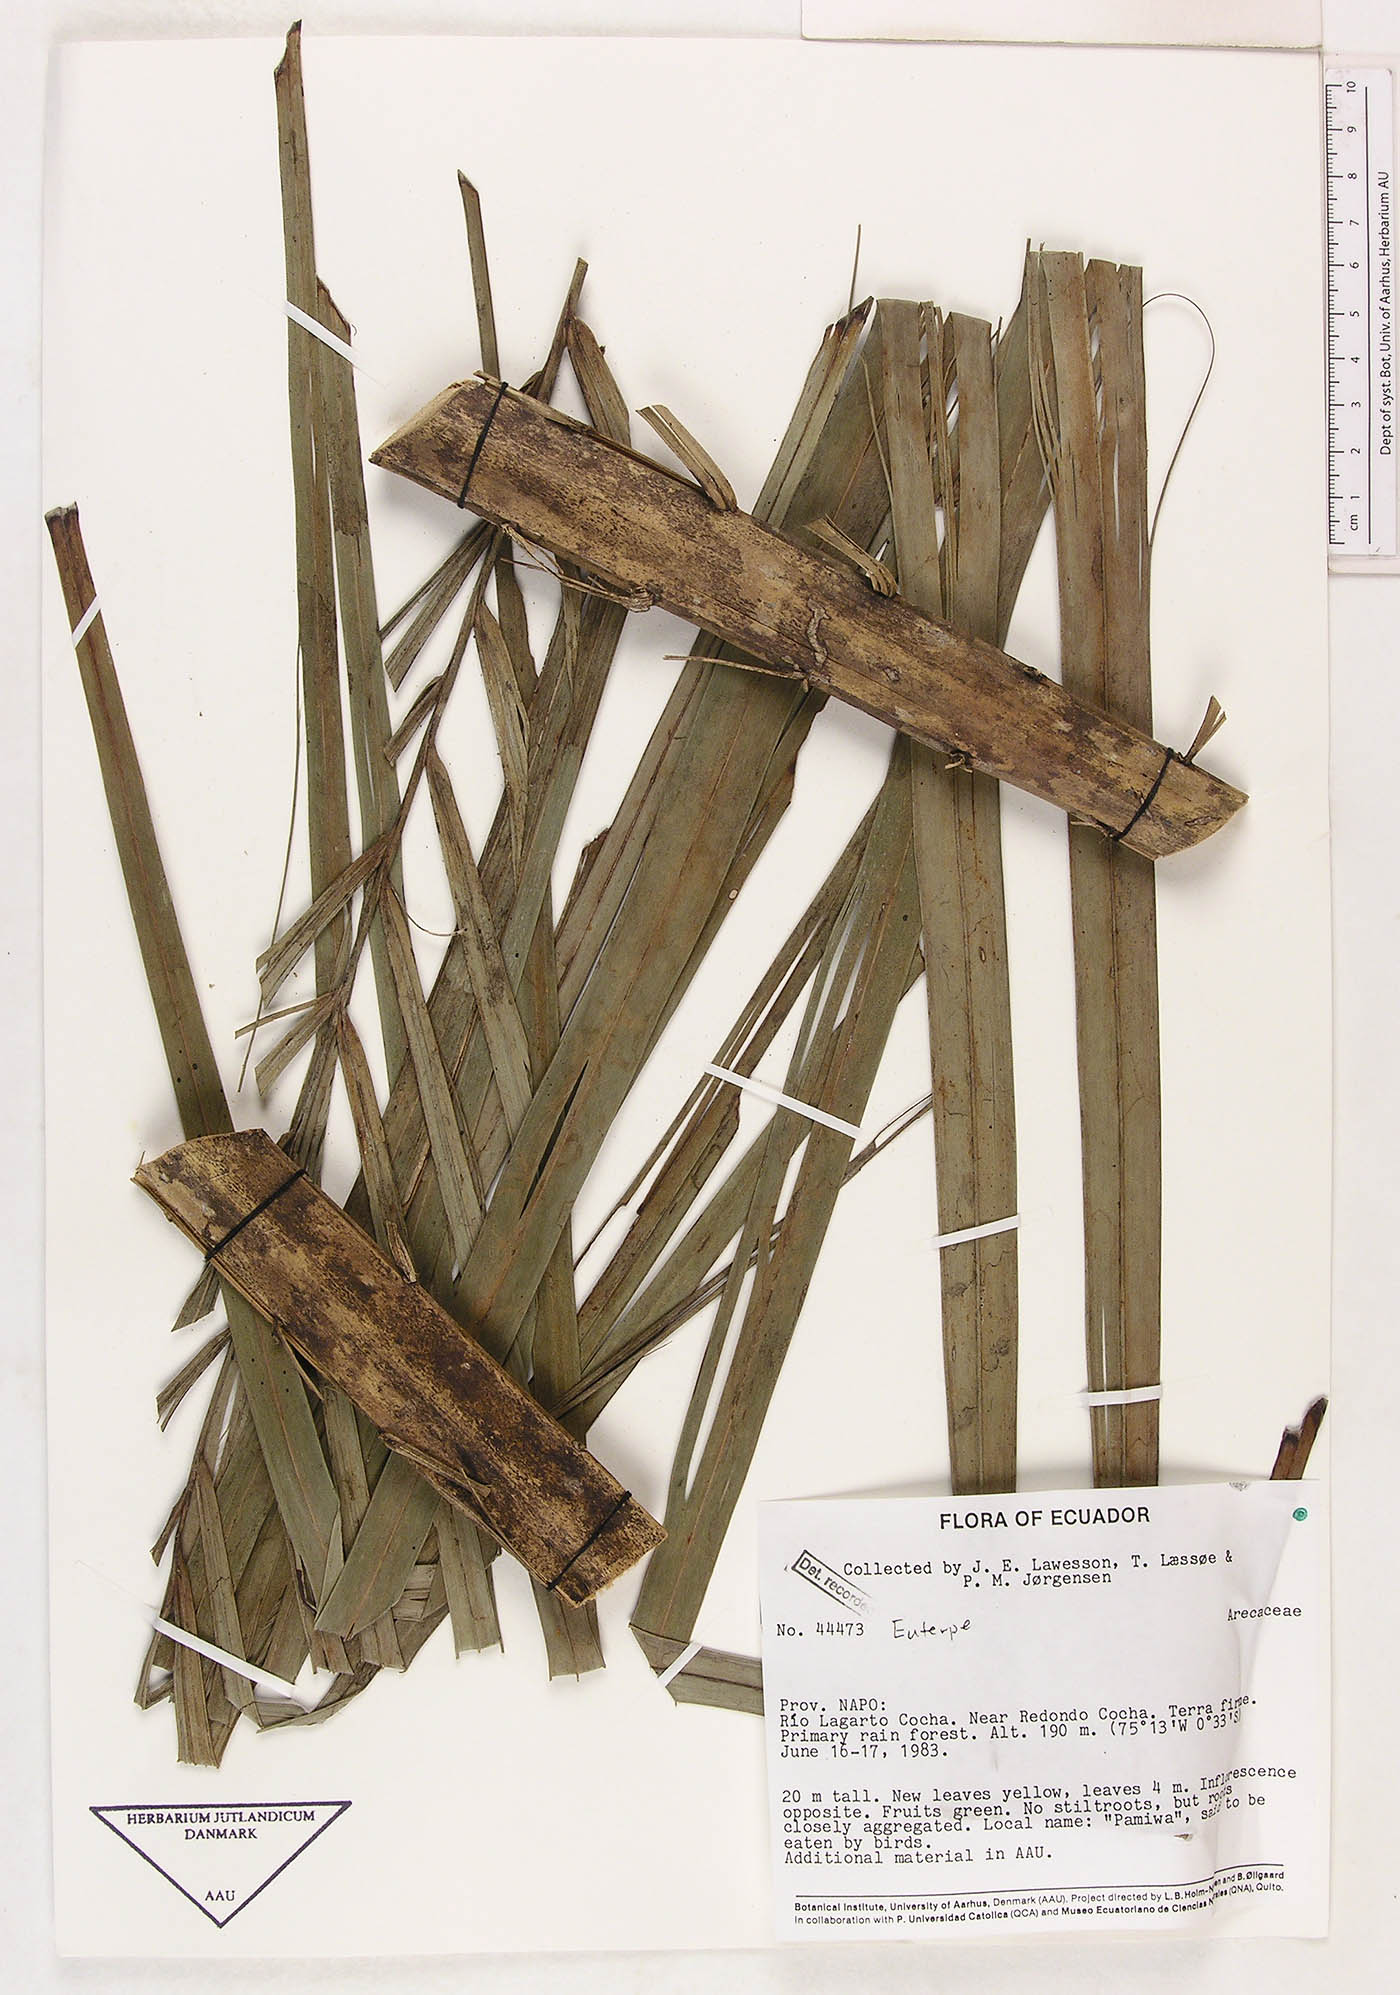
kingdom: Plantae
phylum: Tracheophyta
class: Liliopsida
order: Arecales
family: Arecaceae
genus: Euterpe
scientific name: Euterpe precatoria
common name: Mountain-cabbage
